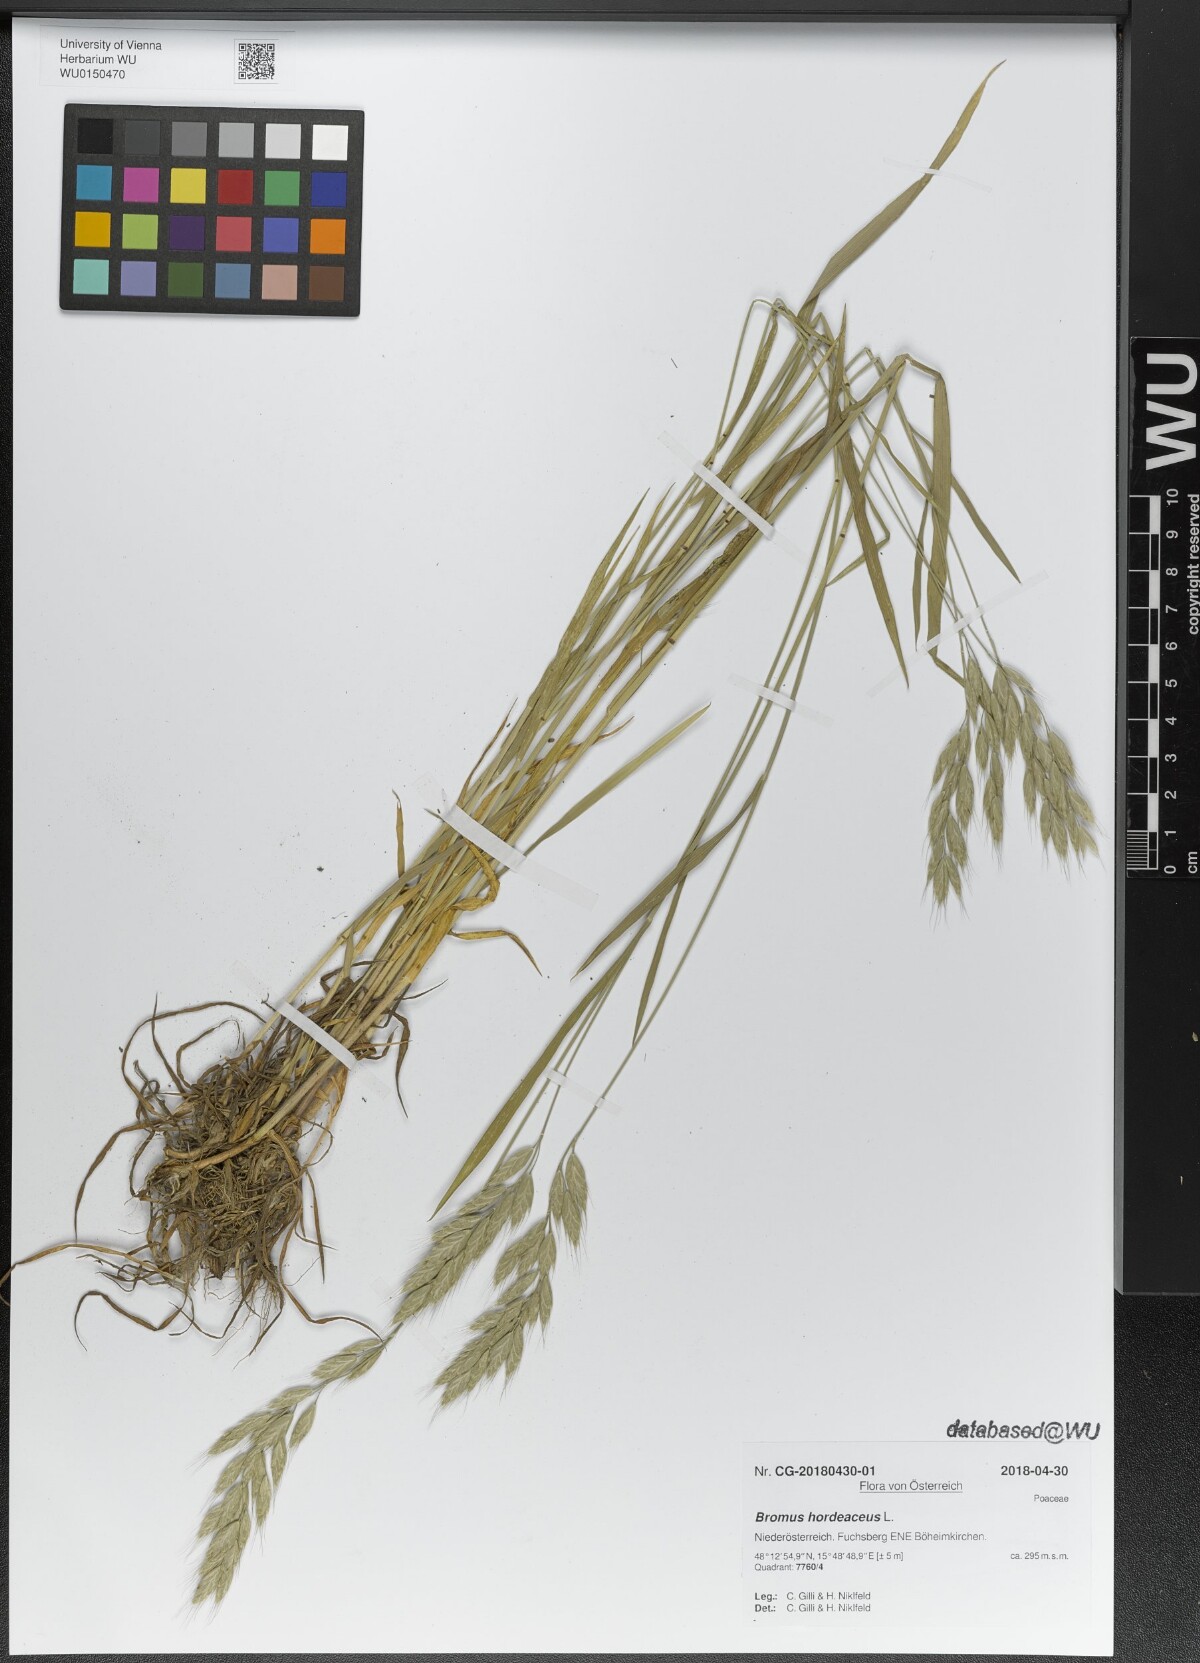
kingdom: Plantae
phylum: Tracheophyta
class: Liliopsida
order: Poales
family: Poaceae
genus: Bromus
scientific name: Bromus hordeaceus
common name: Soft brome
